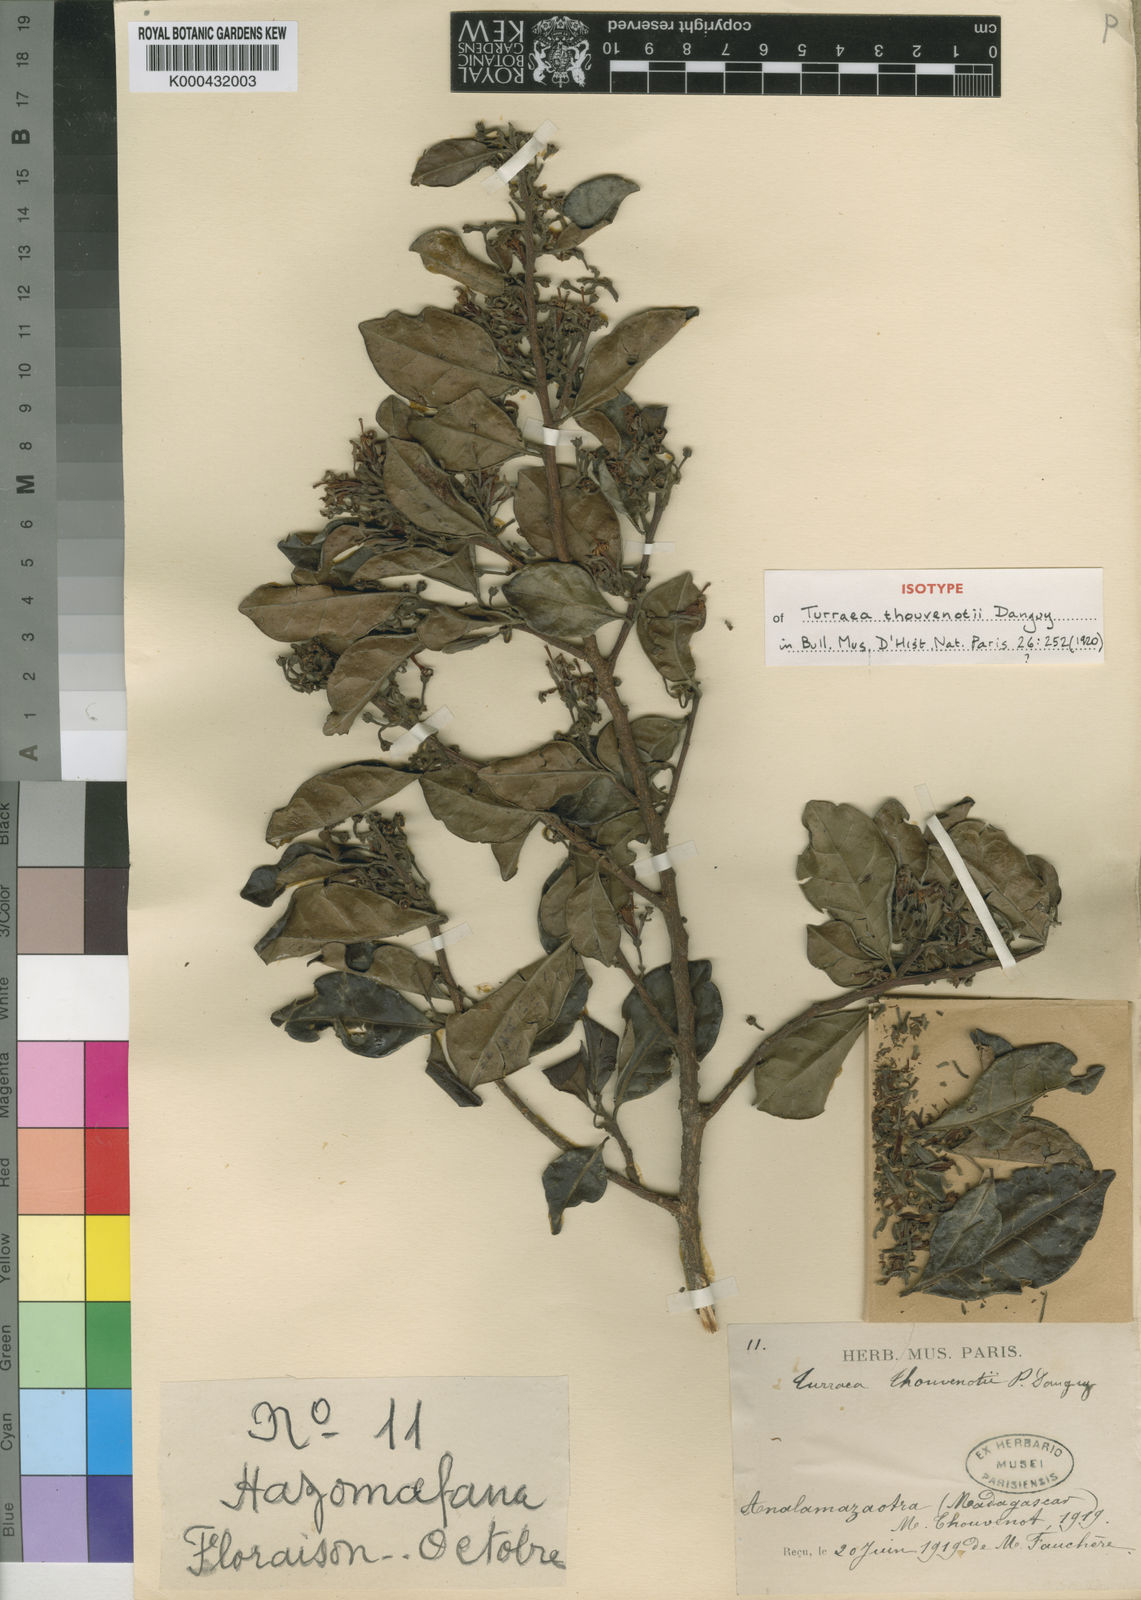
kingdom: Plantae
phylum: Tracheophyta
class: Magnoliopsida
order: Sapindales
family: Meliaceae
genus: Turraea
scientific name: Turraea thouvenotii
